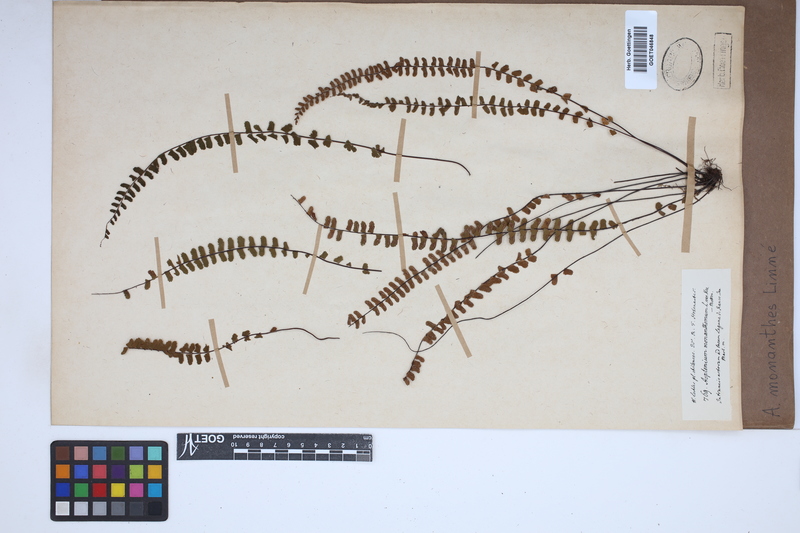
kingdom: Plantae
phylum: Tracheophyta
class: Polypodiopsida
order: Polypodiales
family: Aspleniaceae
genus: Asplenium
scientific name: Asplenium monanthes
